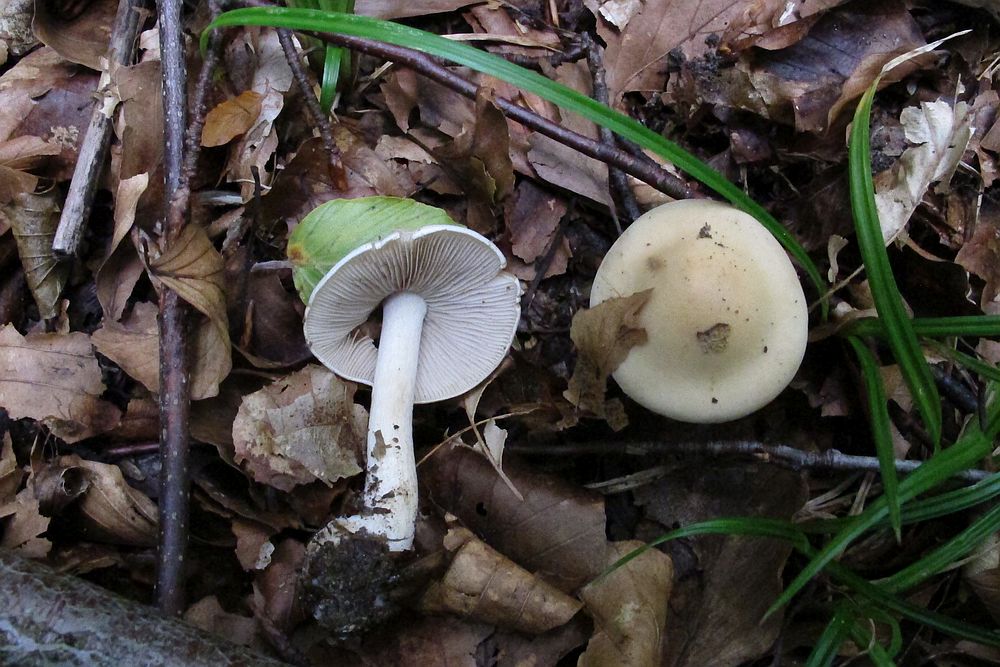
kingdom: Fungi
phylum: Basidiomycota
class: Agaricomycetes
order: Agaricales
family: Hymenogastraceae
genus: Hebeloma
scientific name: Hebeloma leucosarx
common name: højstokket tåreblad
